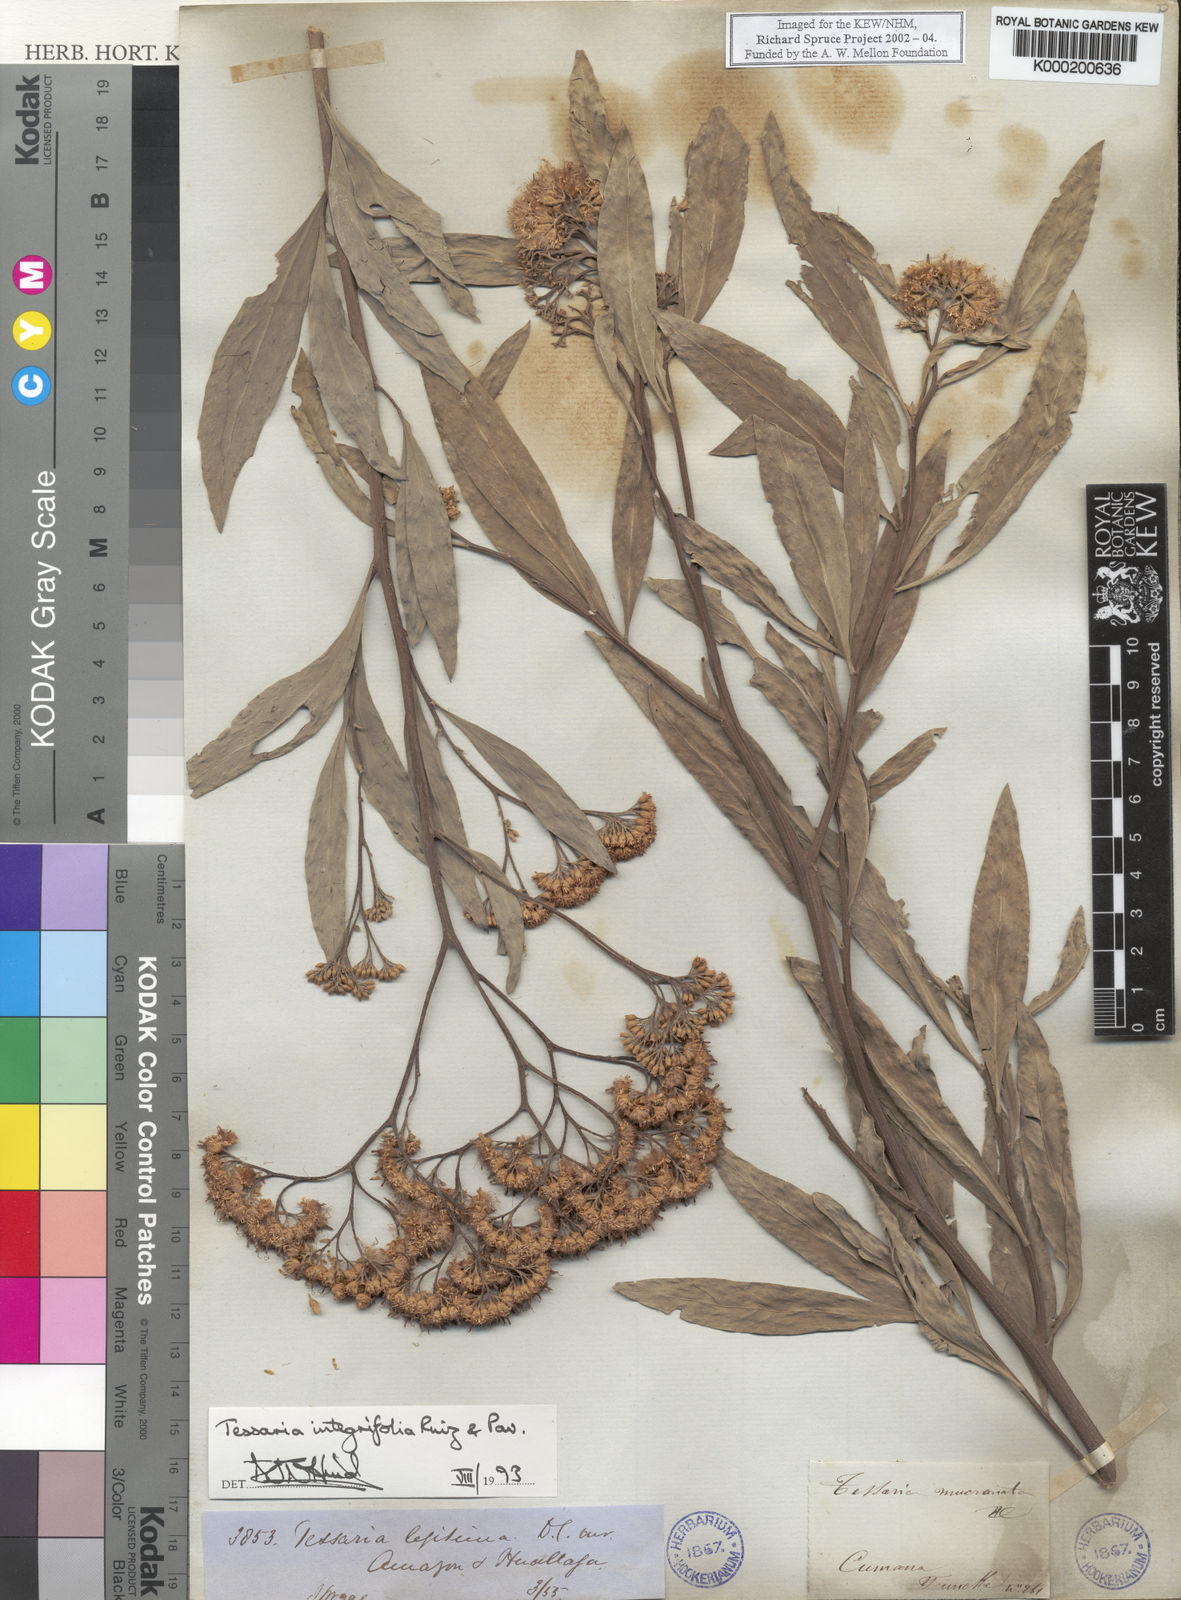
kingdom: Plantae
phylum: Tracheophyta
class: Magnoliopsida
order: Asterales
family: Asteraceae
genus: Tessaria
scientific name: Tessaria
